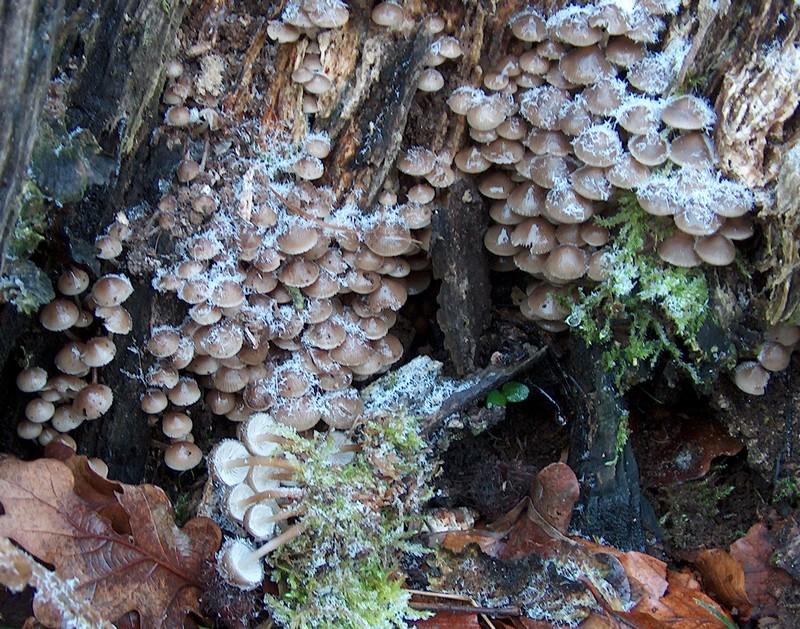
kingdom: Fungi
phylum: Basidiomycota
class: Agaricomycetes
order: Agaricales
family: Mycenaceae
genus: Mycena
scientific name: Mycena tintinnabulum
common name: vinter-huesvamp
